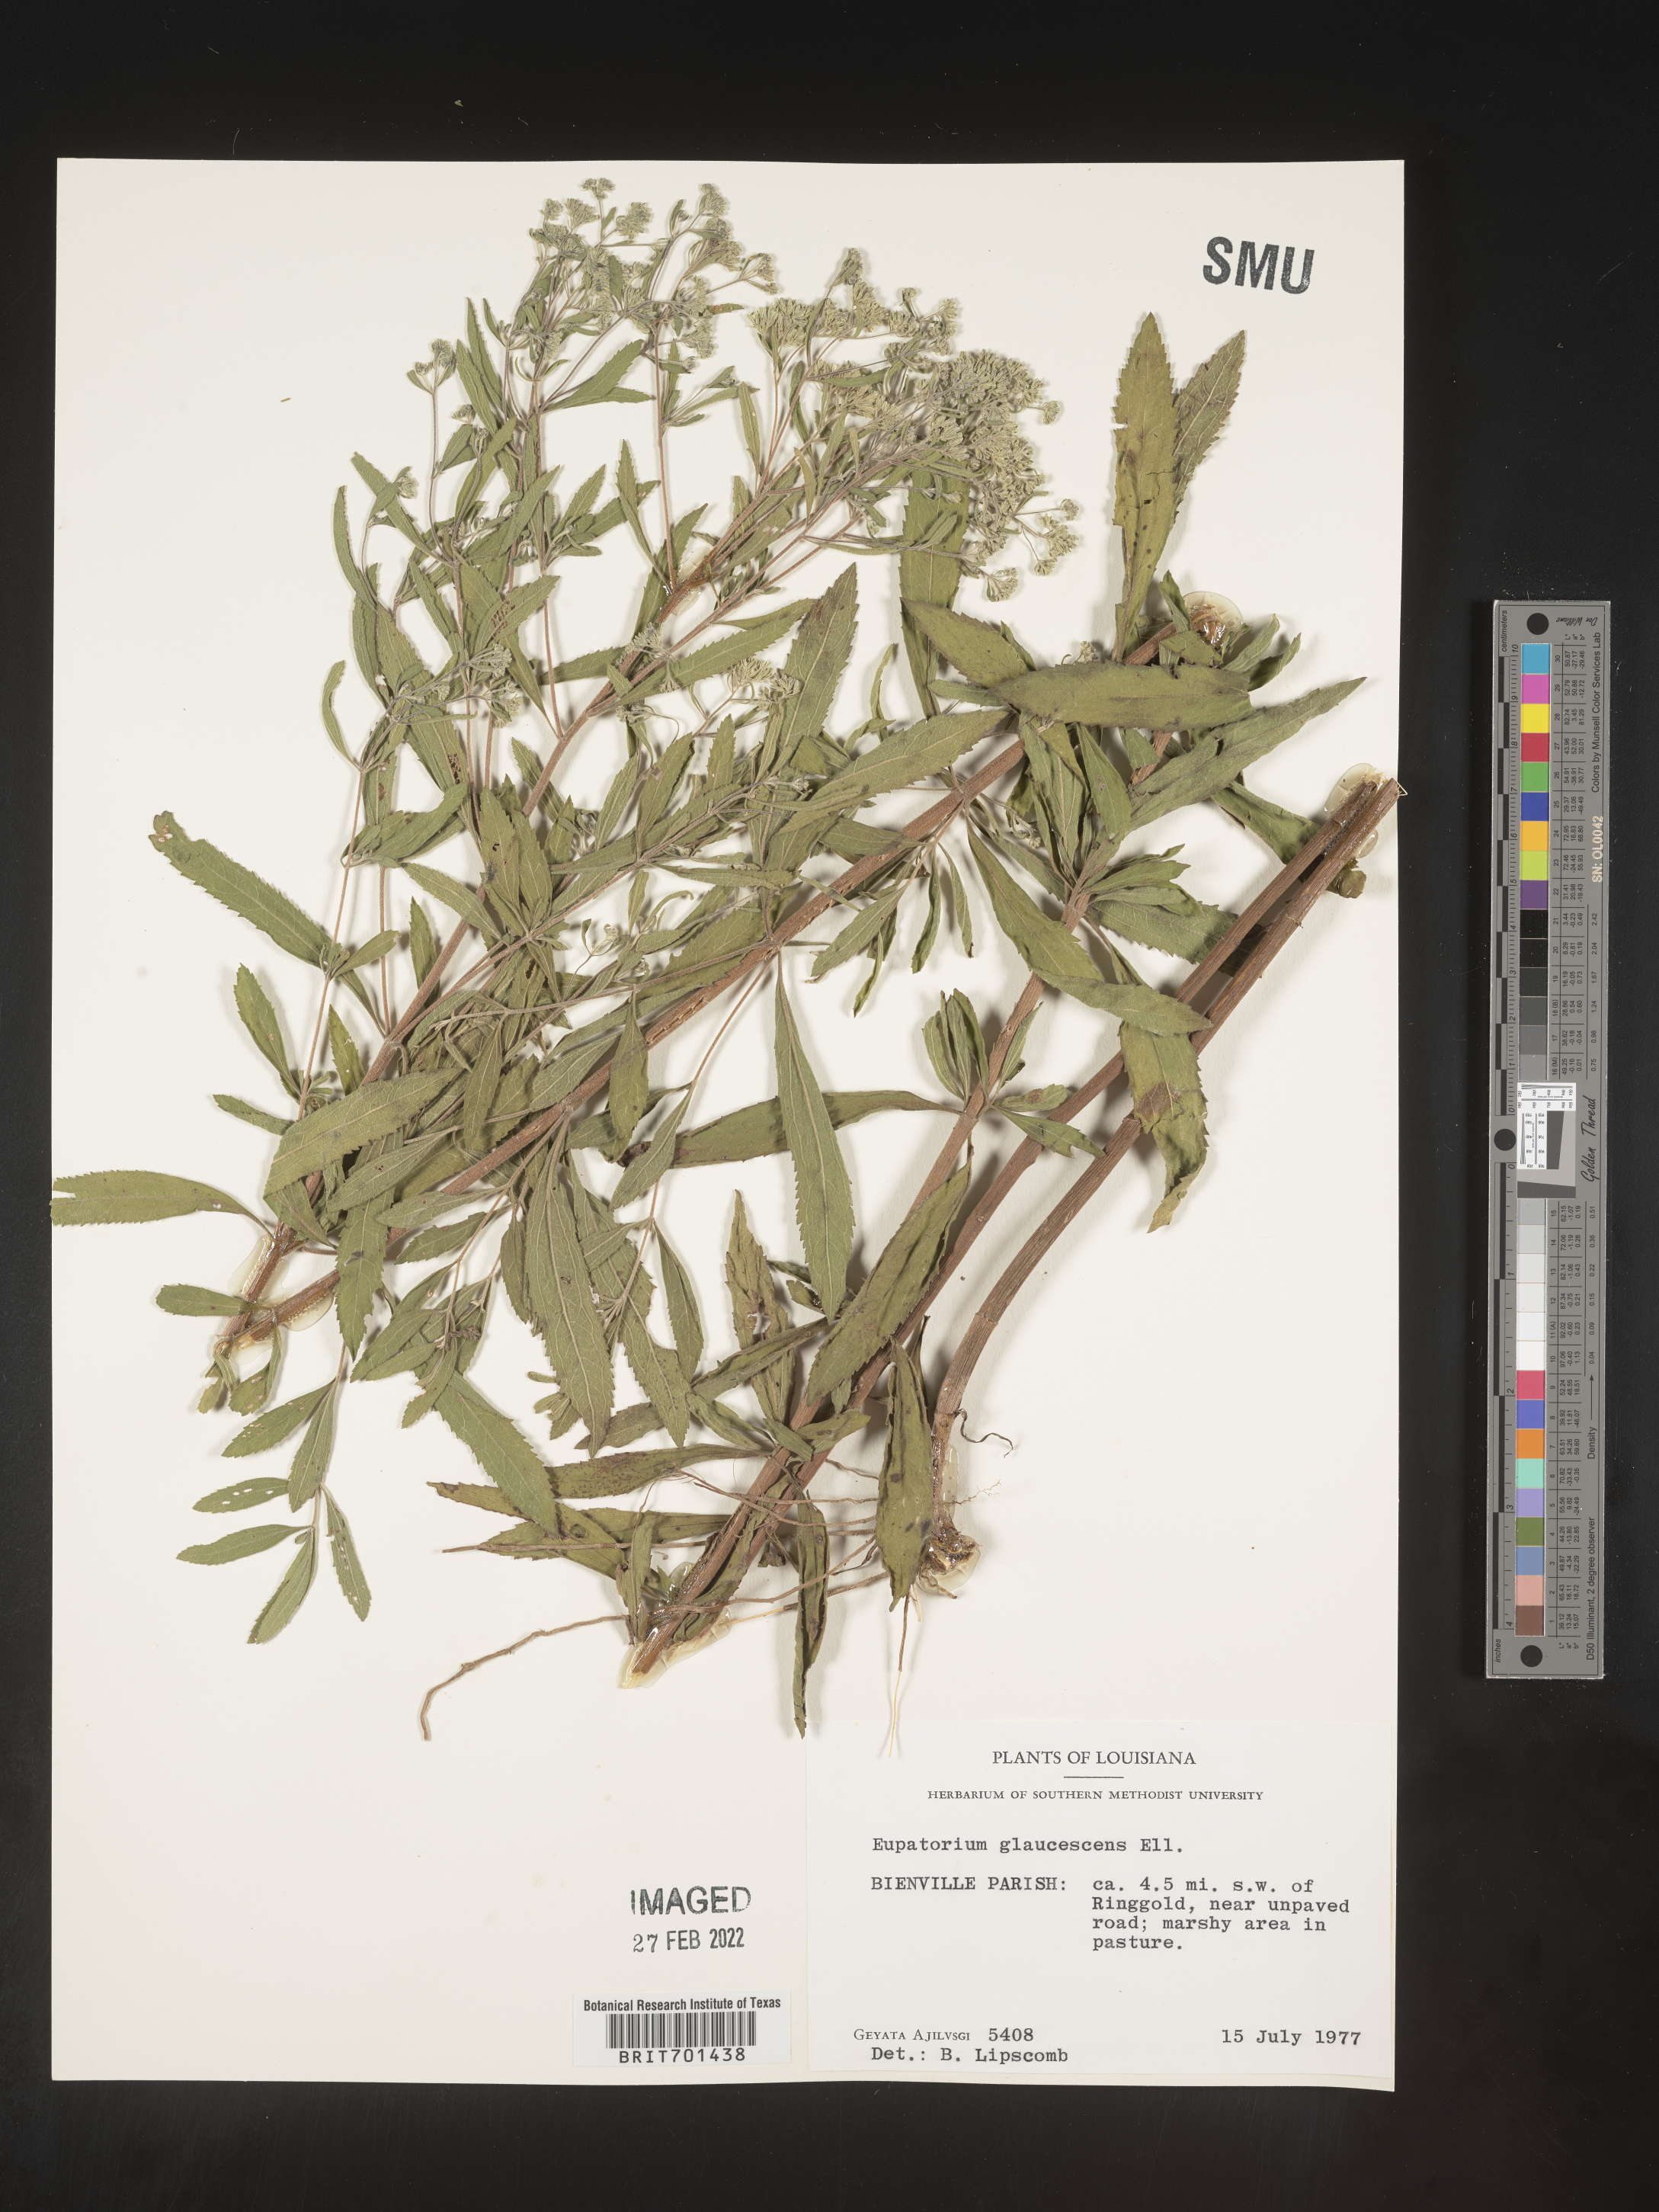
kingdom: Plantae
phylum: Tracheophyta
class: Magnoliopsida
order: Asterales
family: Asteraceae
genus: Eupatorium
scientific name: Eupatorium linearifolium
